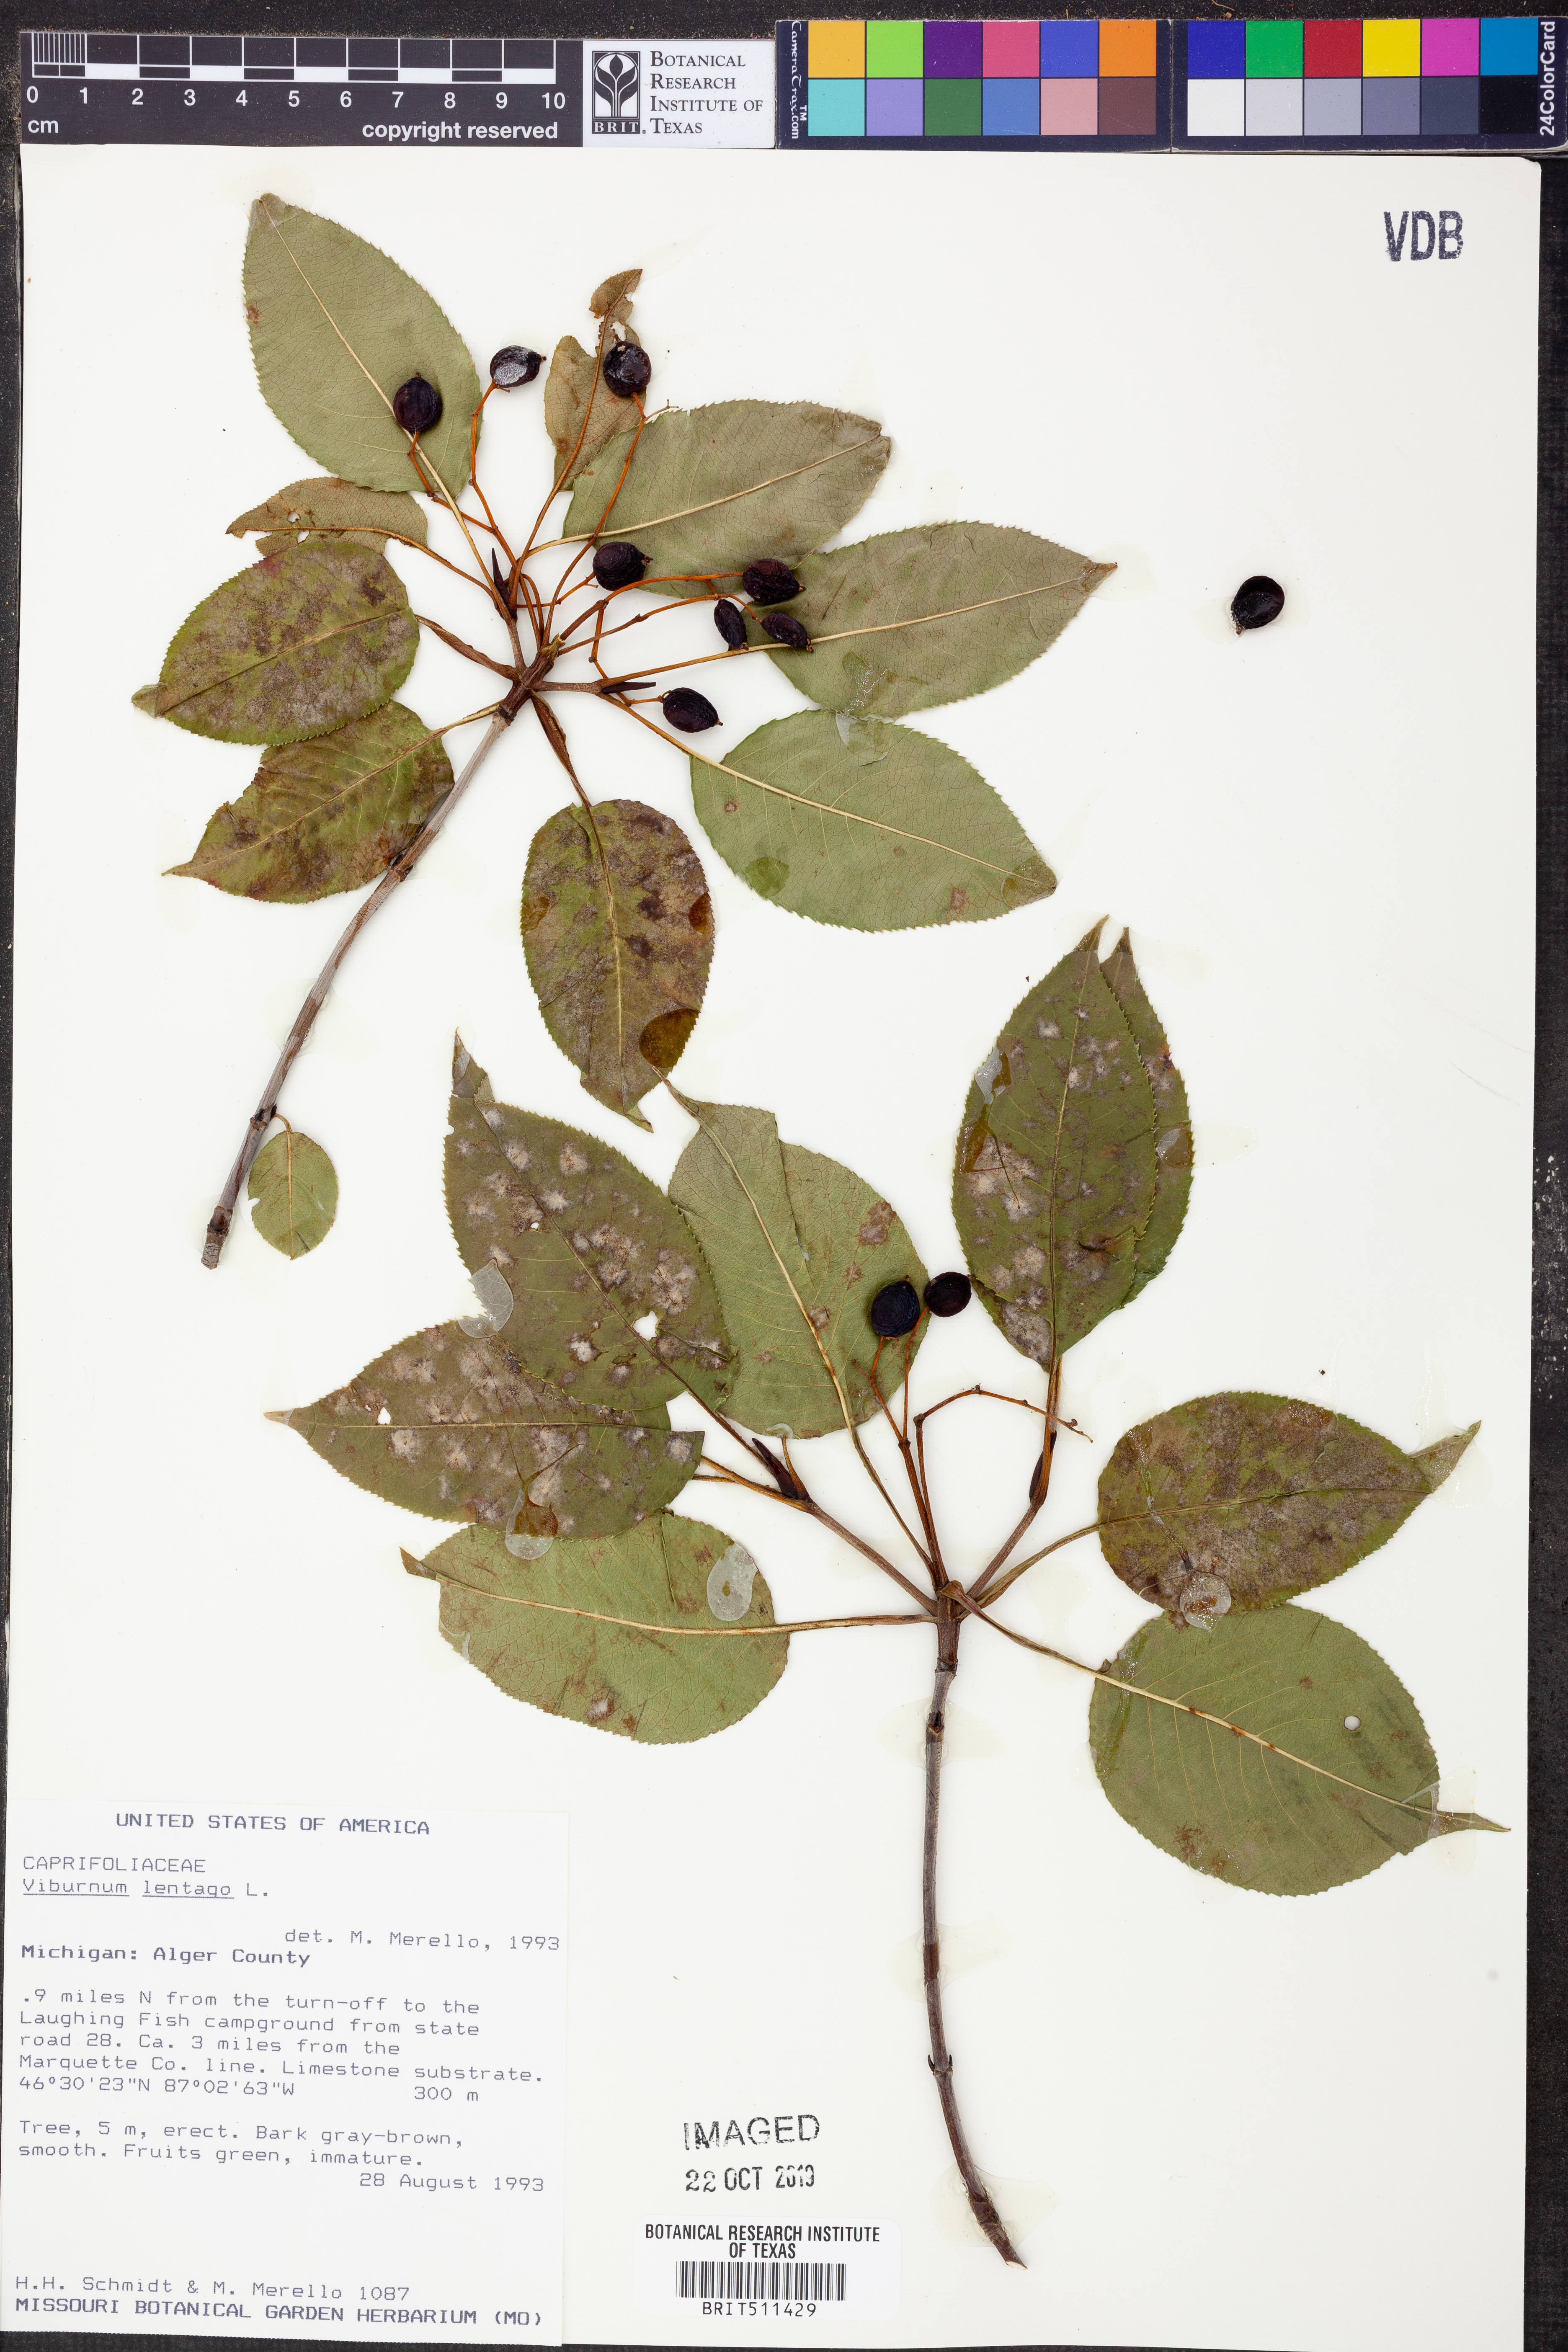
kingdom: Plantae
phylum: Tracheophyta
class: Magnoliopsida
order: Dipsacales
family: Viburnaceae
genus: Viburnum
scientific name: Viburnum lentago
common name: Black haw
